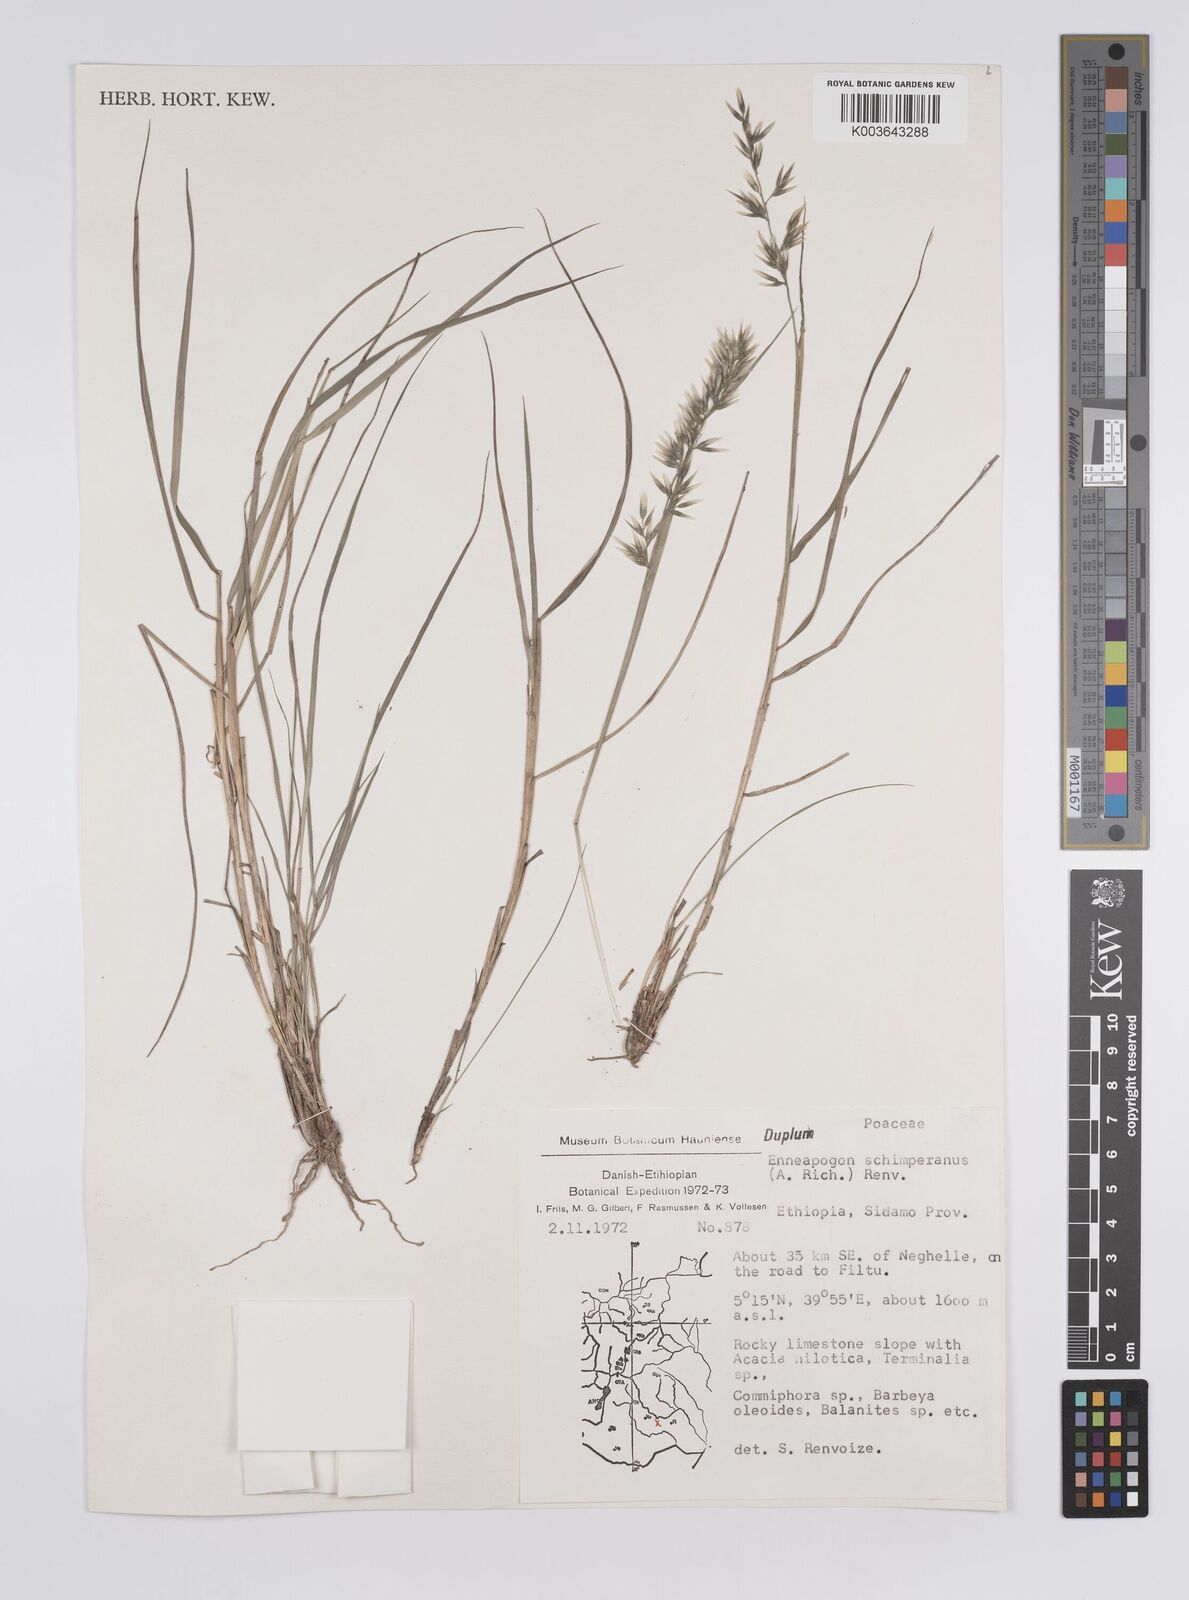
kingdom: Plantae
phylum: Tracheophyta
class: Liliopsida
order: Poales
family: Poaceae
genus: Enneapogon
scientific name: Enneapogon persicus
